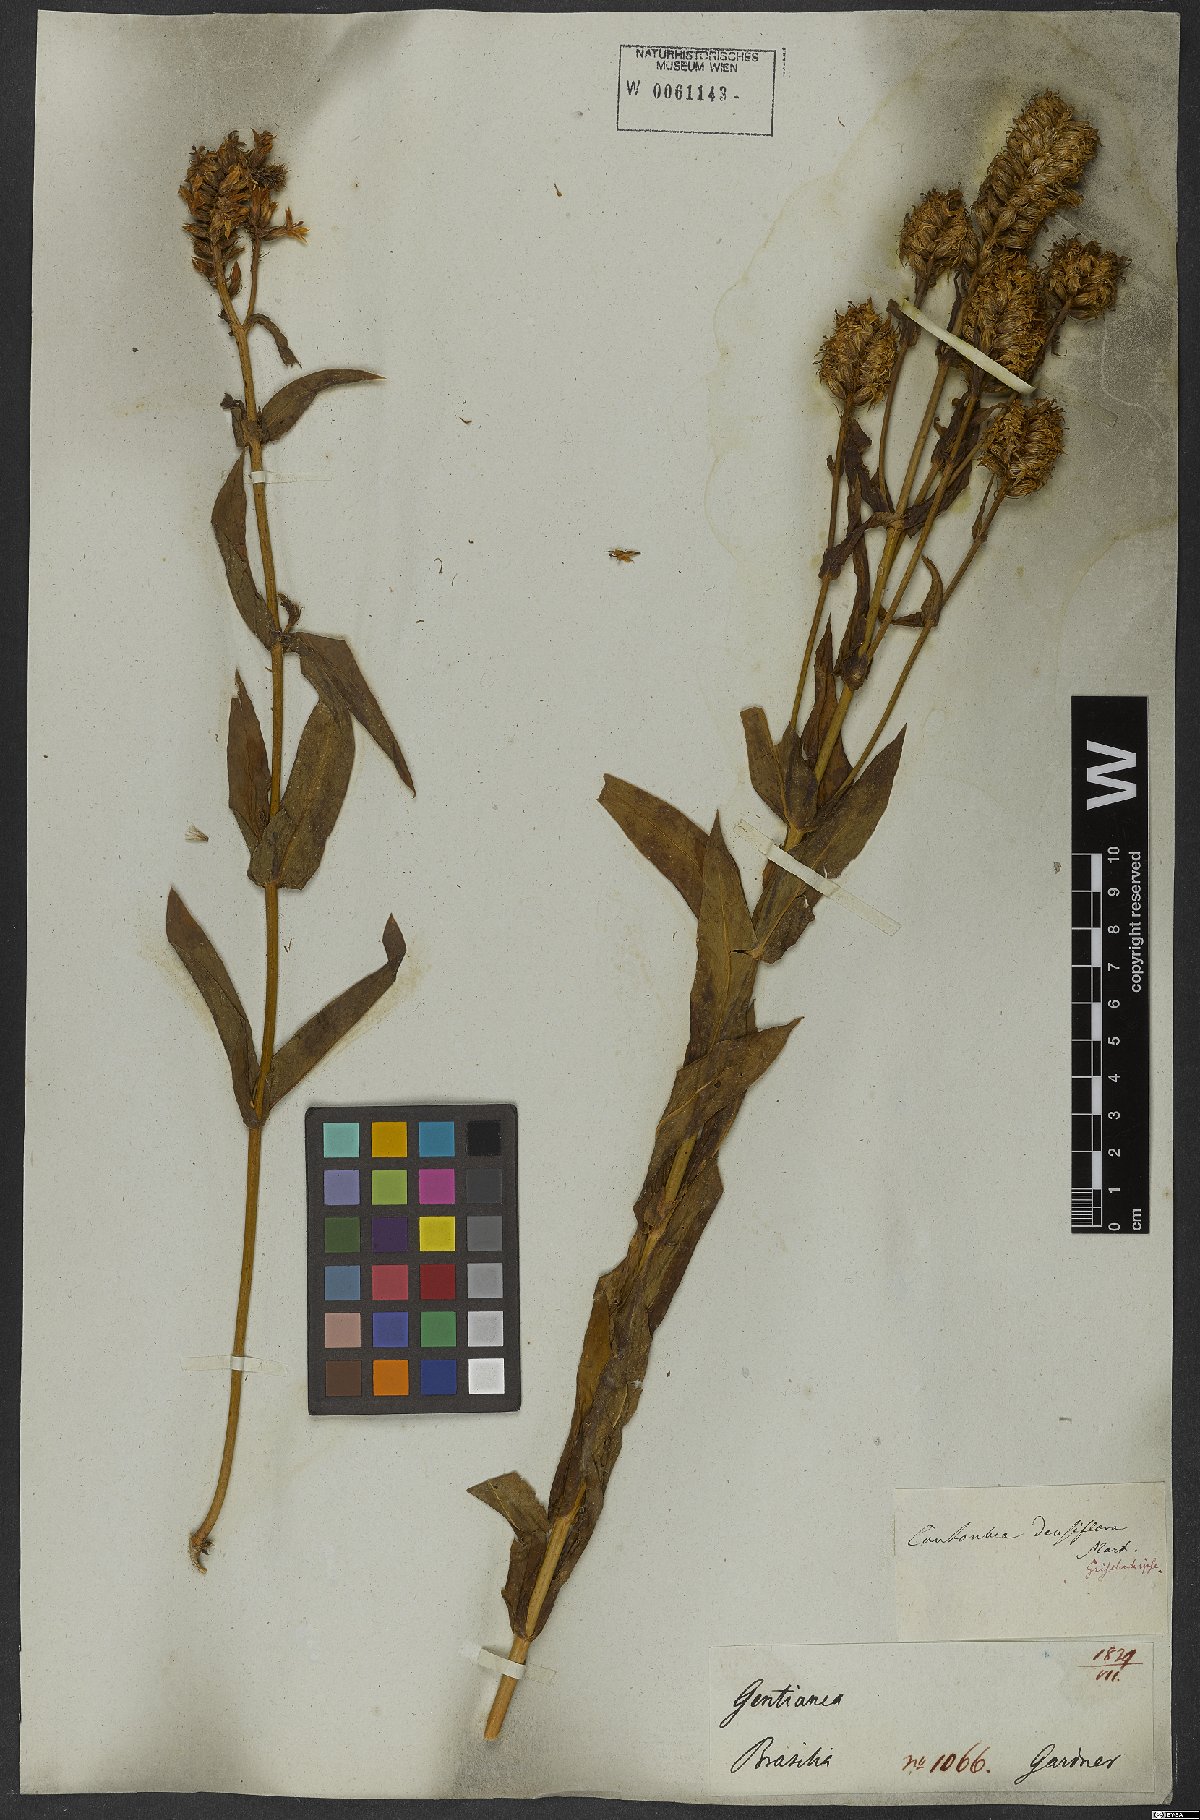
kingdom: Plantae
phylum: Tracheophyta
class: Magnoliopsida
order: Gentianales
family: Gentianaceae
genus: Coutoubea
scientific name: Coutoubea spicata
